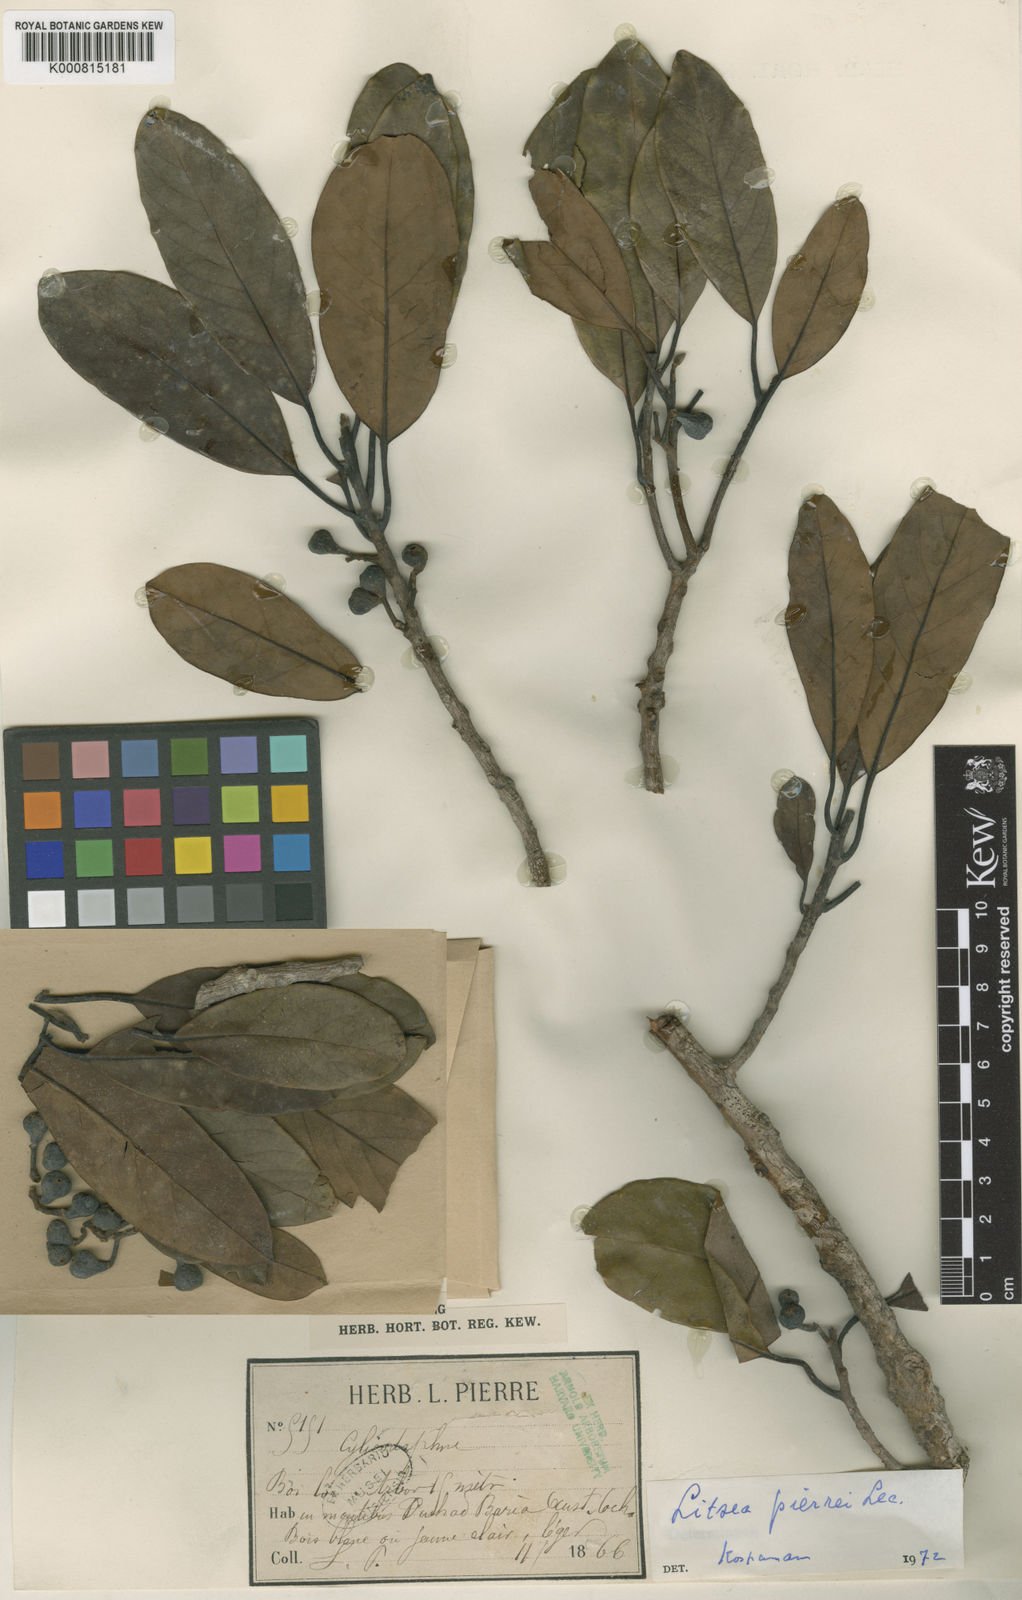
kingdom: Plantae
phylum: Tracheophyta
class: Magnoliopsida
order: Laurales
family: Lauraceae
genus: Litsea
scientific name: Litsea cambodiana
